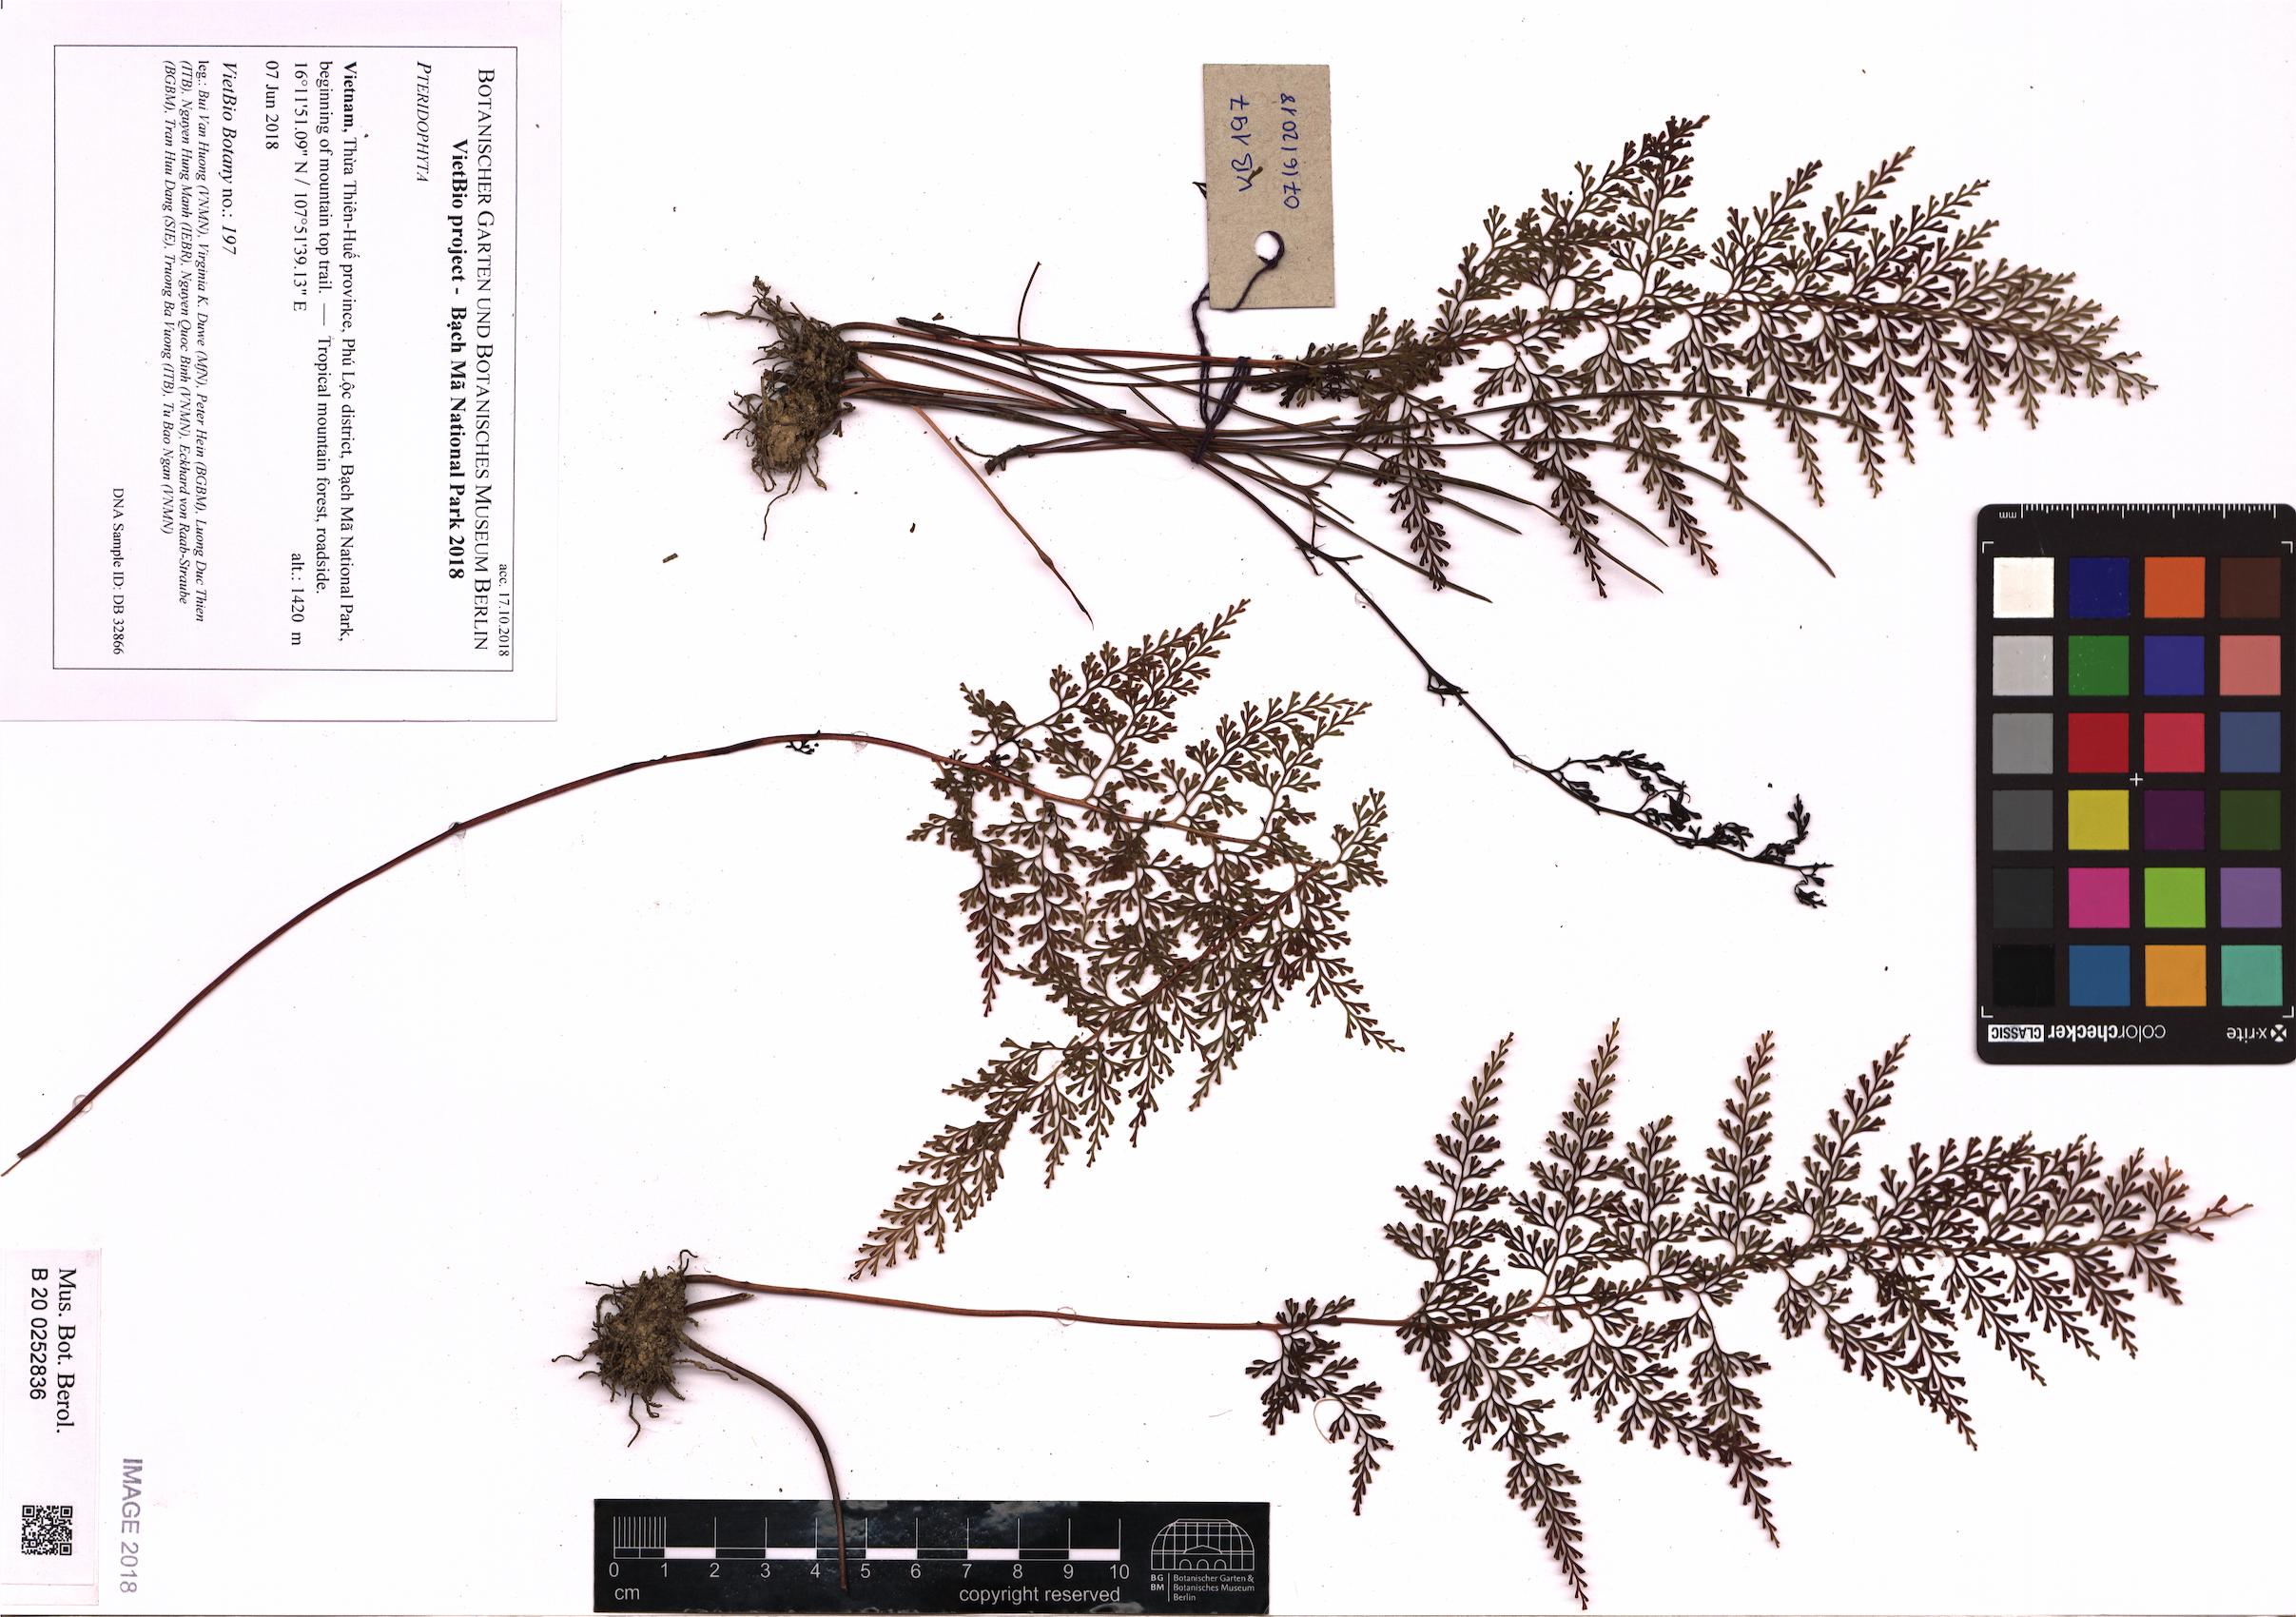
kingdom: Plantae
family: Pteridophyta
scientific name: Pteridophyta
